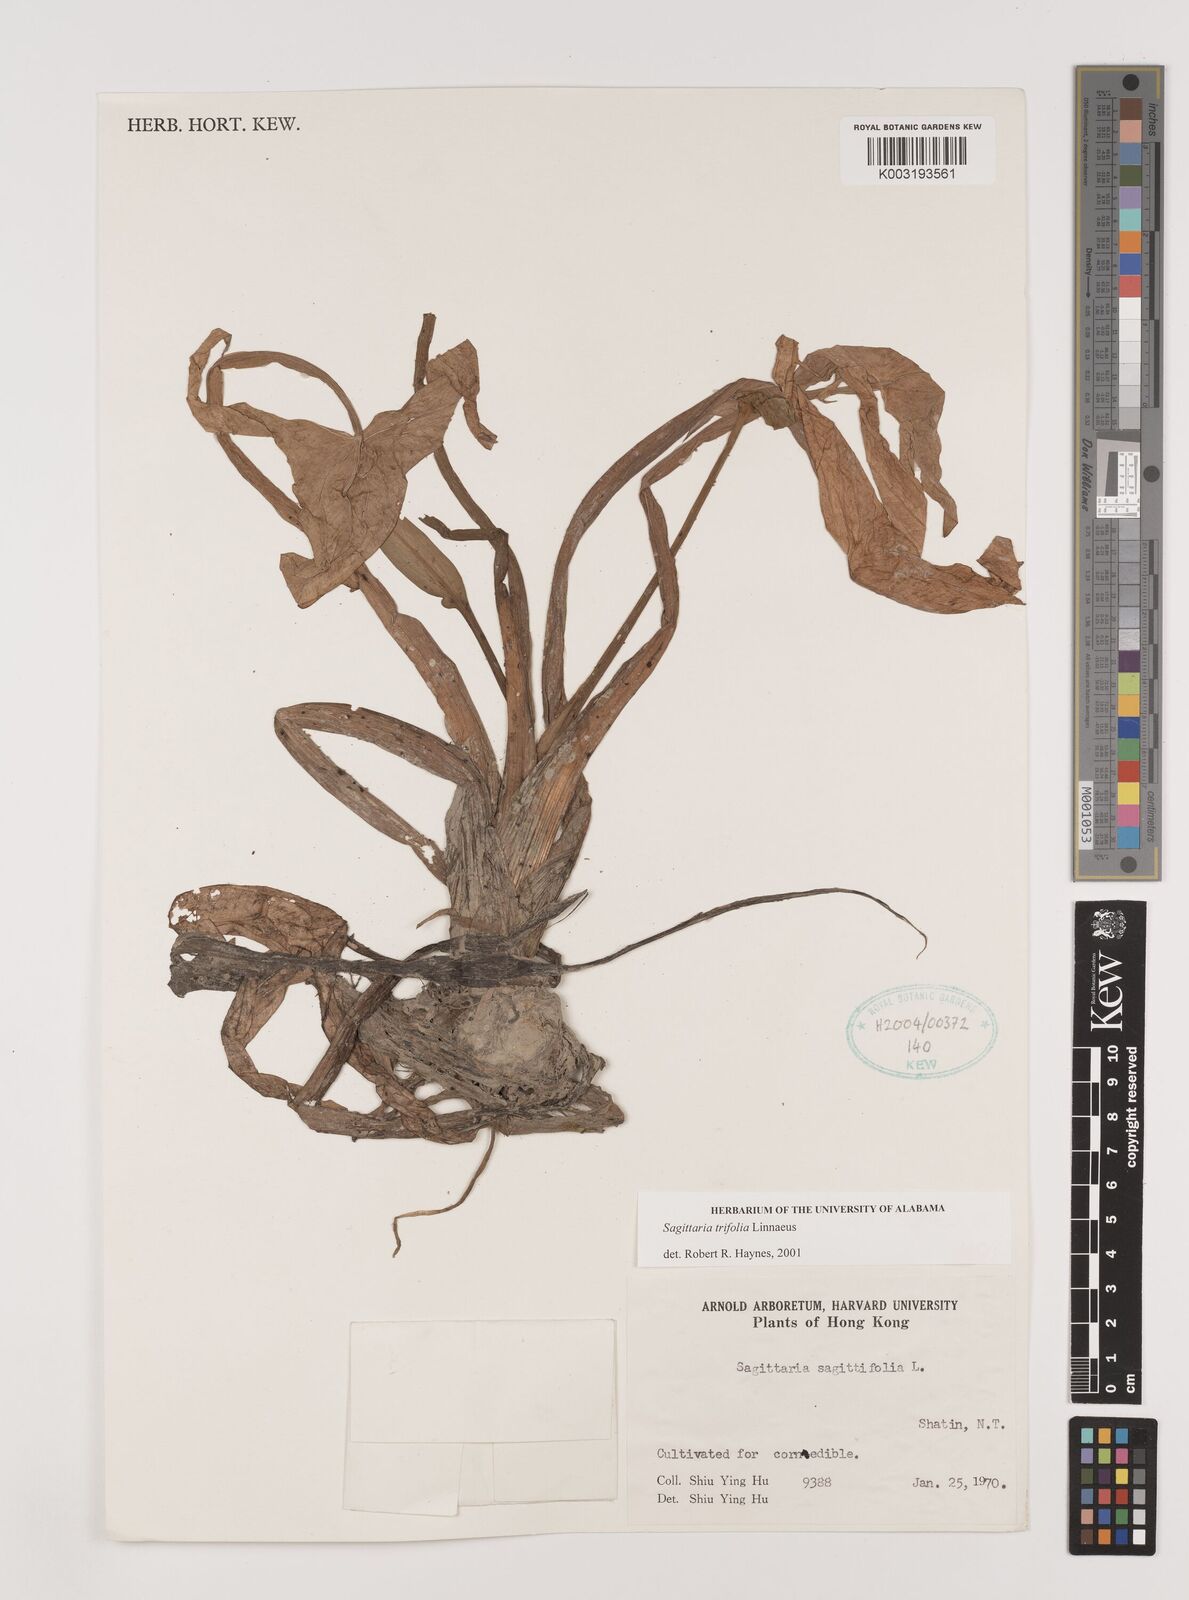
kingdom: Plantae
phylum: Tracheophyta
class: Liliopsida
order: Alismatales
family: Alismataceae
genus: Sagittaria
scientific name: Sagittaria trifolia
